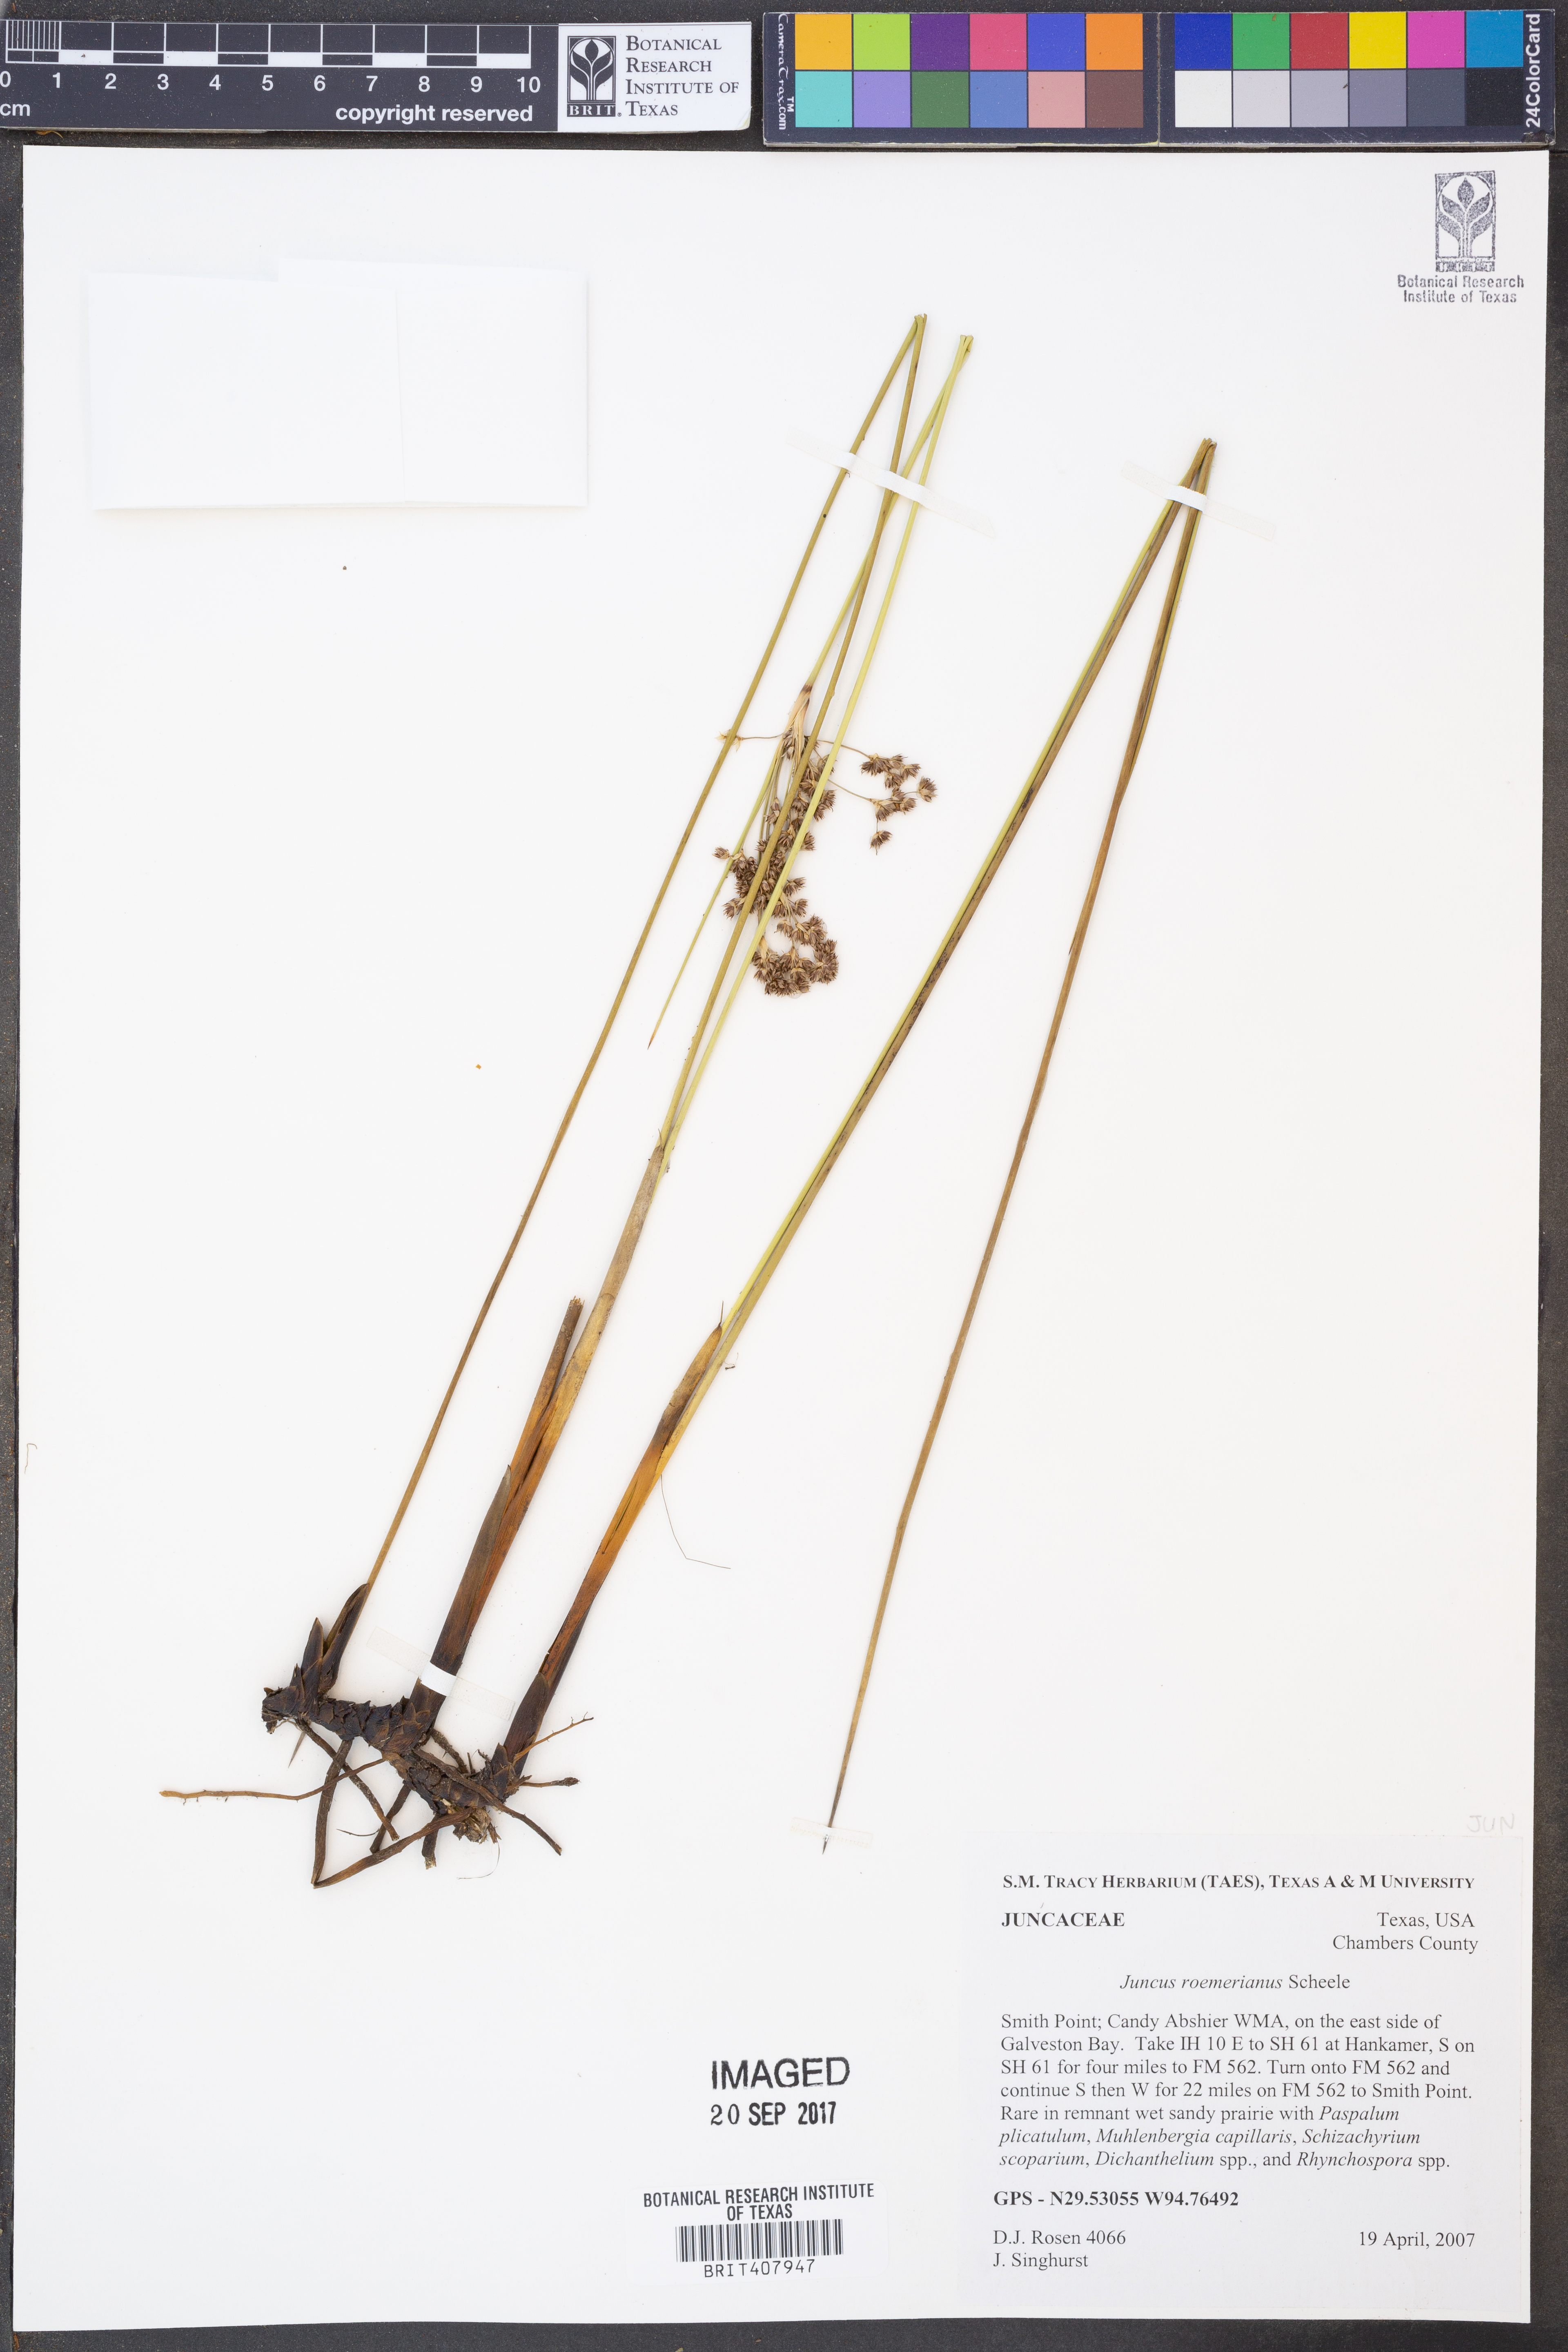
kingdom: Plantae
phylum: Tracheophyta
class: Liliopsida
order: Poales
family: Juncaceae
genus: Juncus
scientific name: Juncus roemerianus
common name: Roemer's rush
